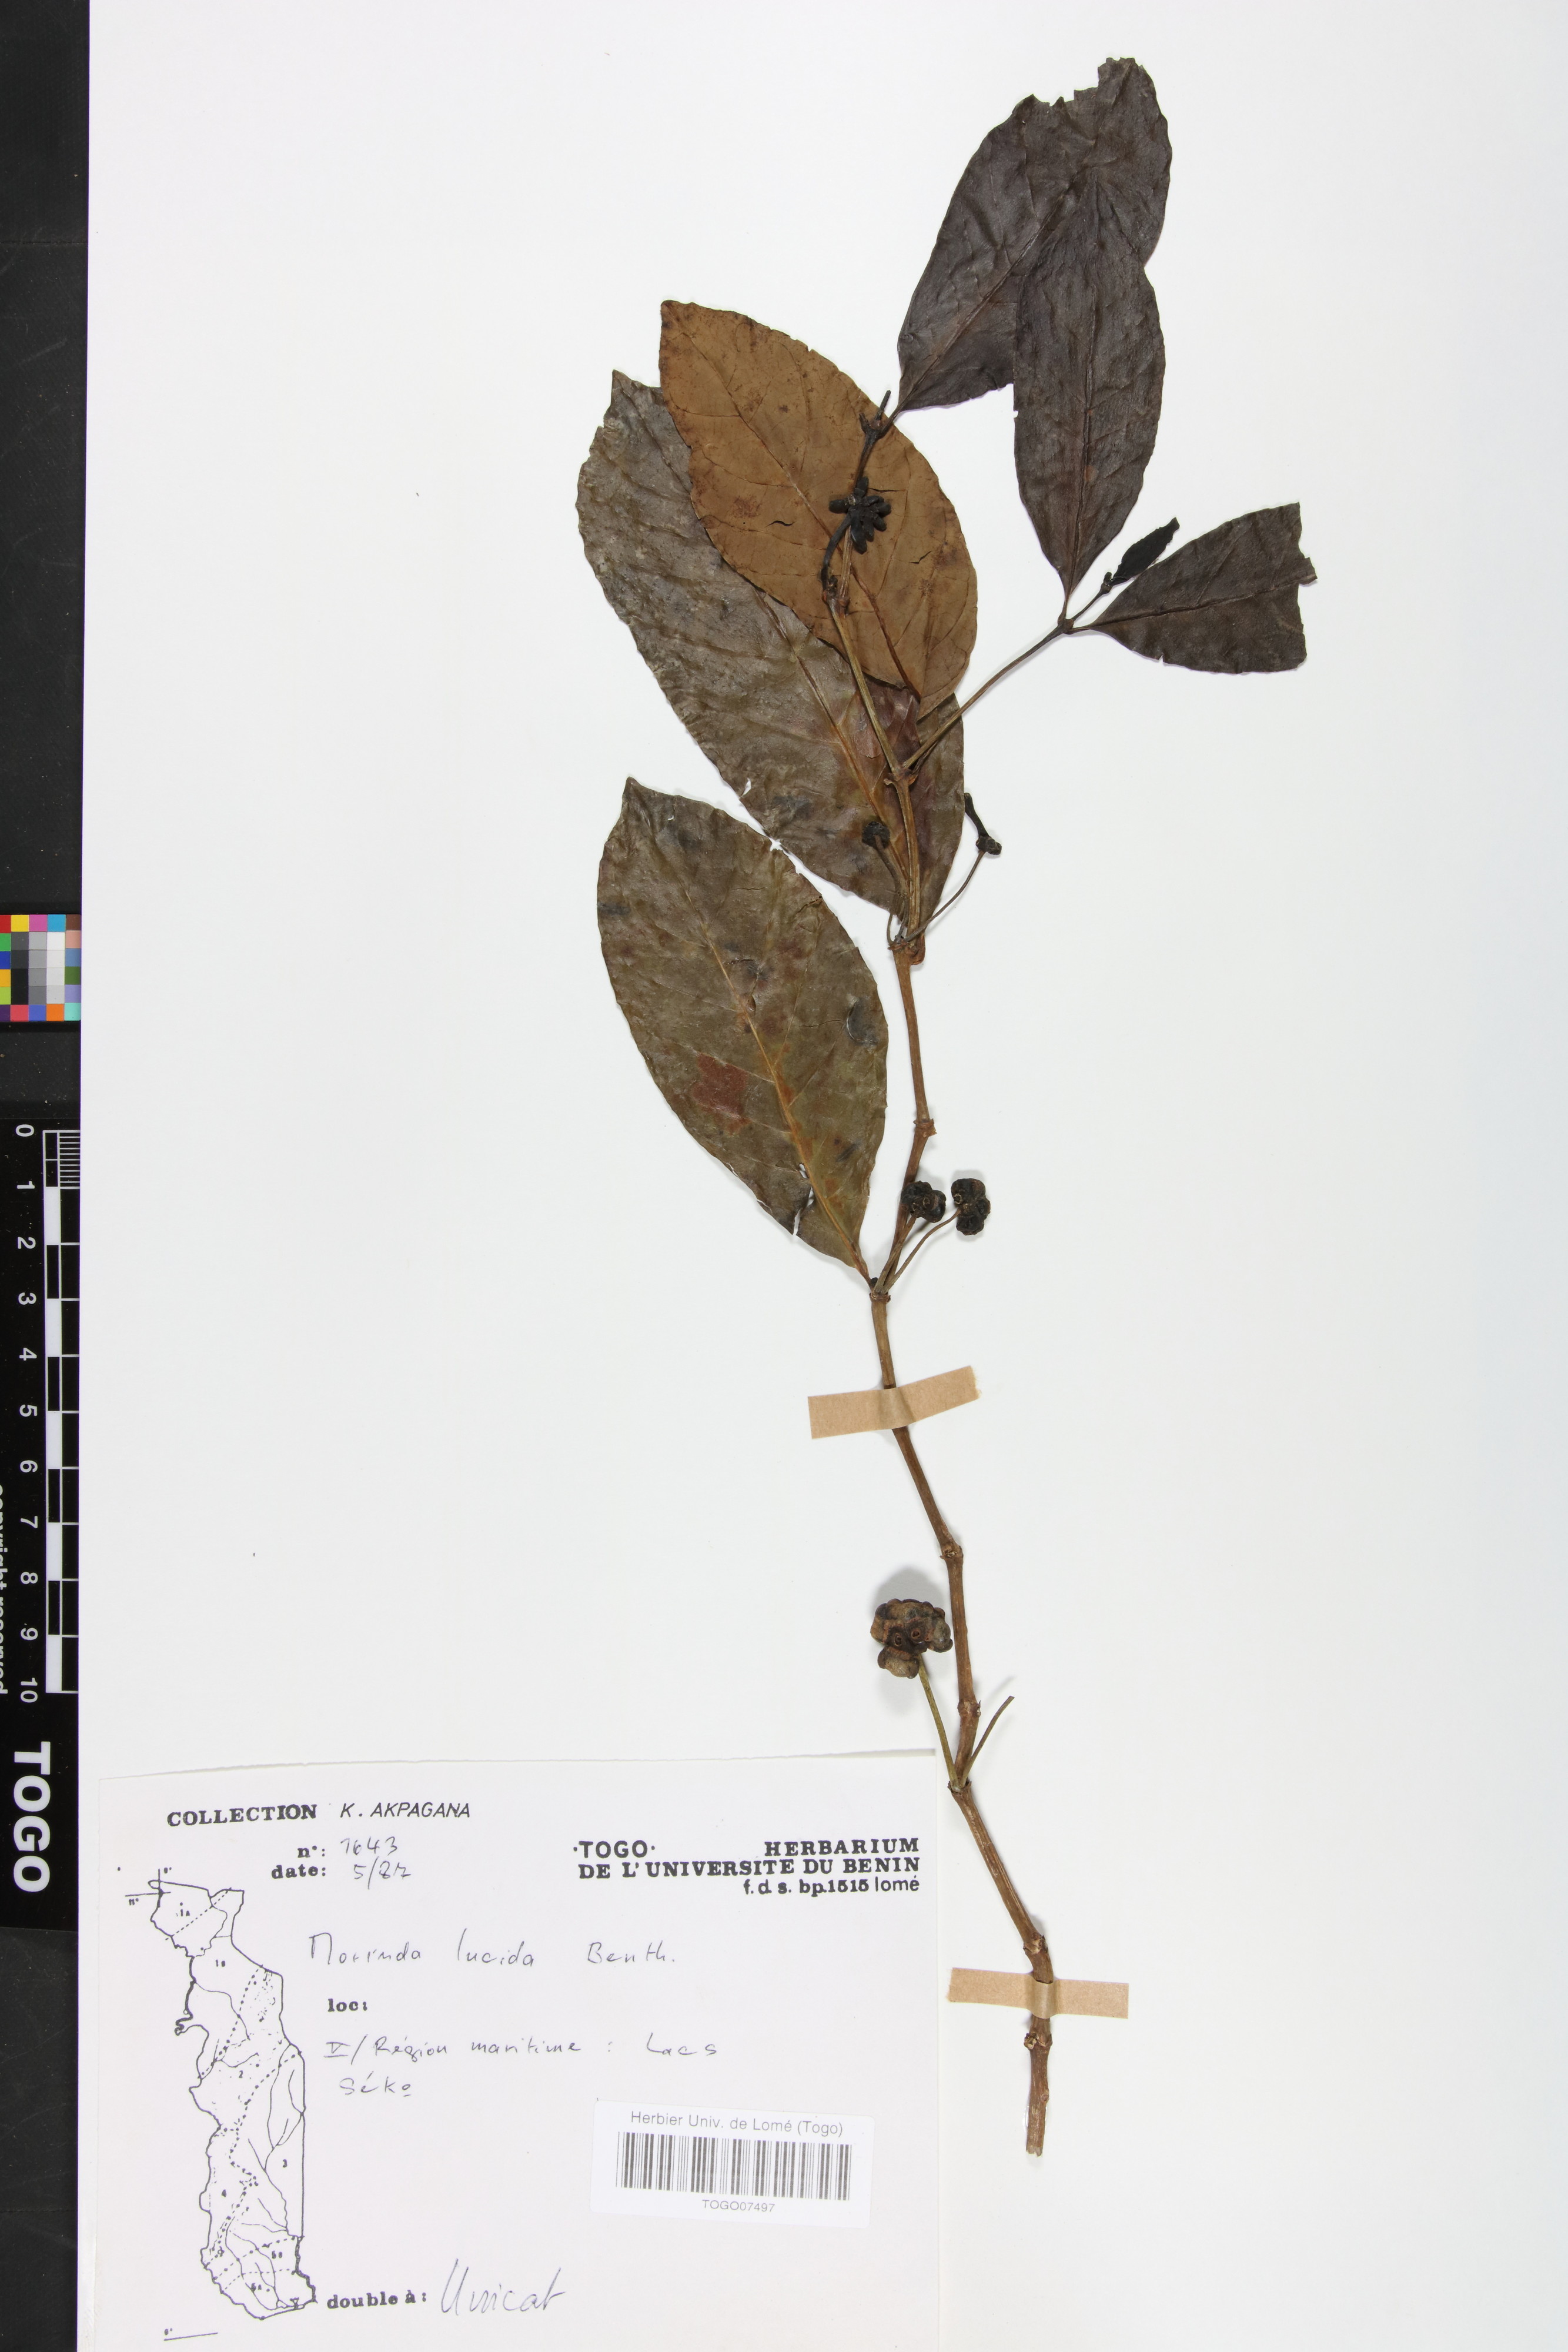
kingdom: Plantae
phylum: Tracheophyta
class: Magnoliopsida
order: Gentianales
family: Rubiaceae
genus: Morinda
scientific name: Morinda lucida
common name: Brimstonetree
